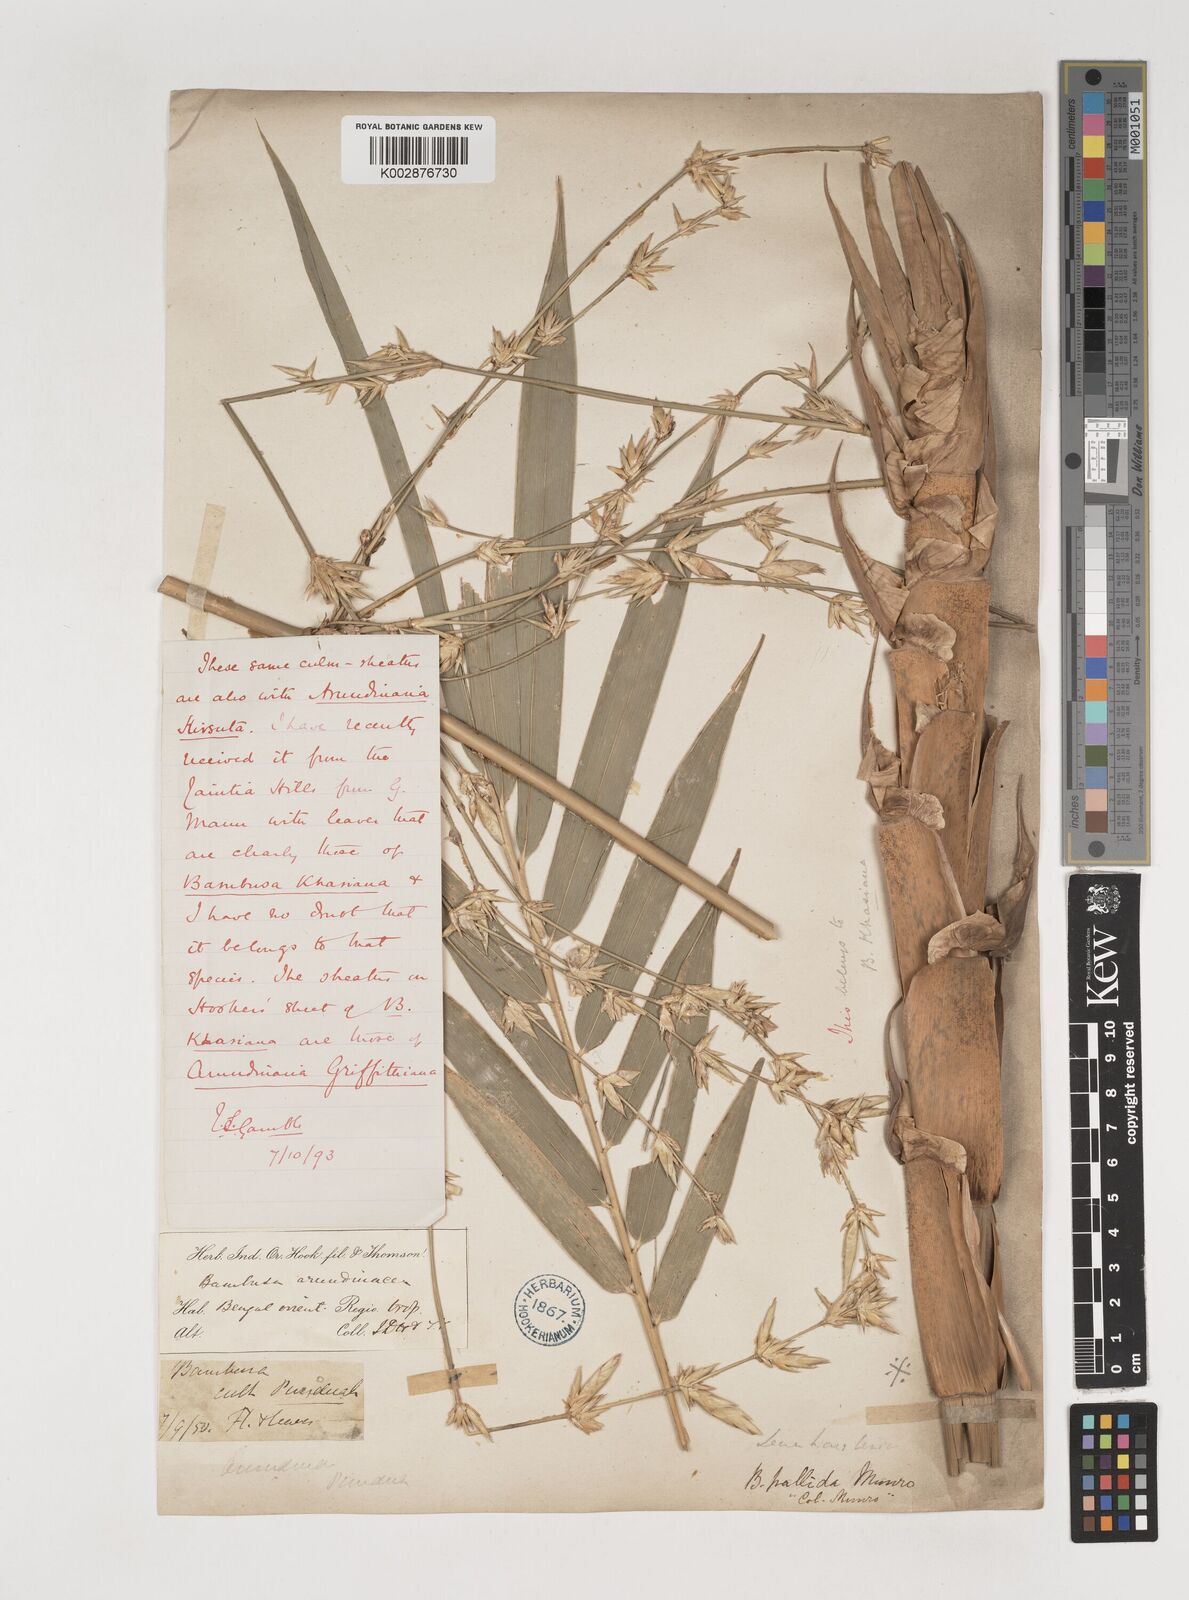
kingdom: Plantae
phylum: Tracheophyta
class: Liliopsida
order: Poales
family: Poaceae
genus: Bambusa
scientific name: Bambusa pallida
